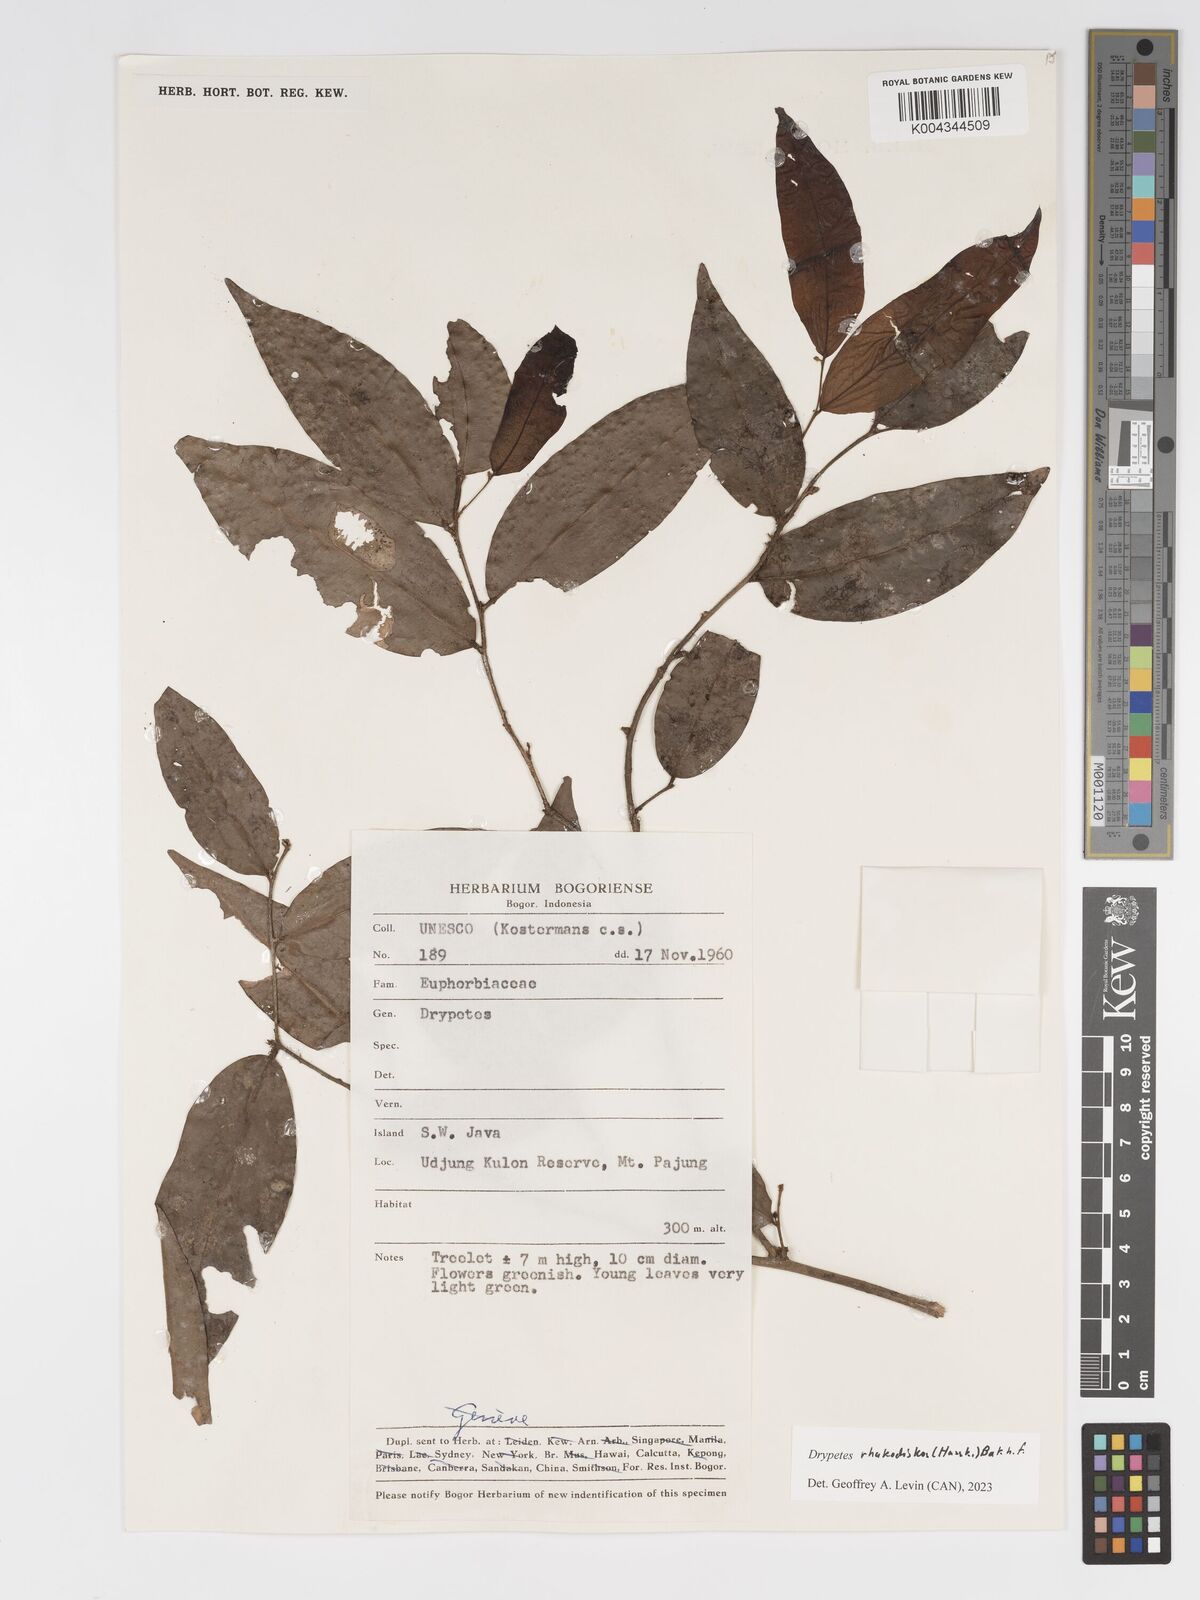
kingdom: Plantae
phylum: Tracheophyta
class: Magnoliopsida
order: Malpighiales
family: Putranjivaceae
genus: Drypetes
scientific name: Drypetes rhakodiskos
